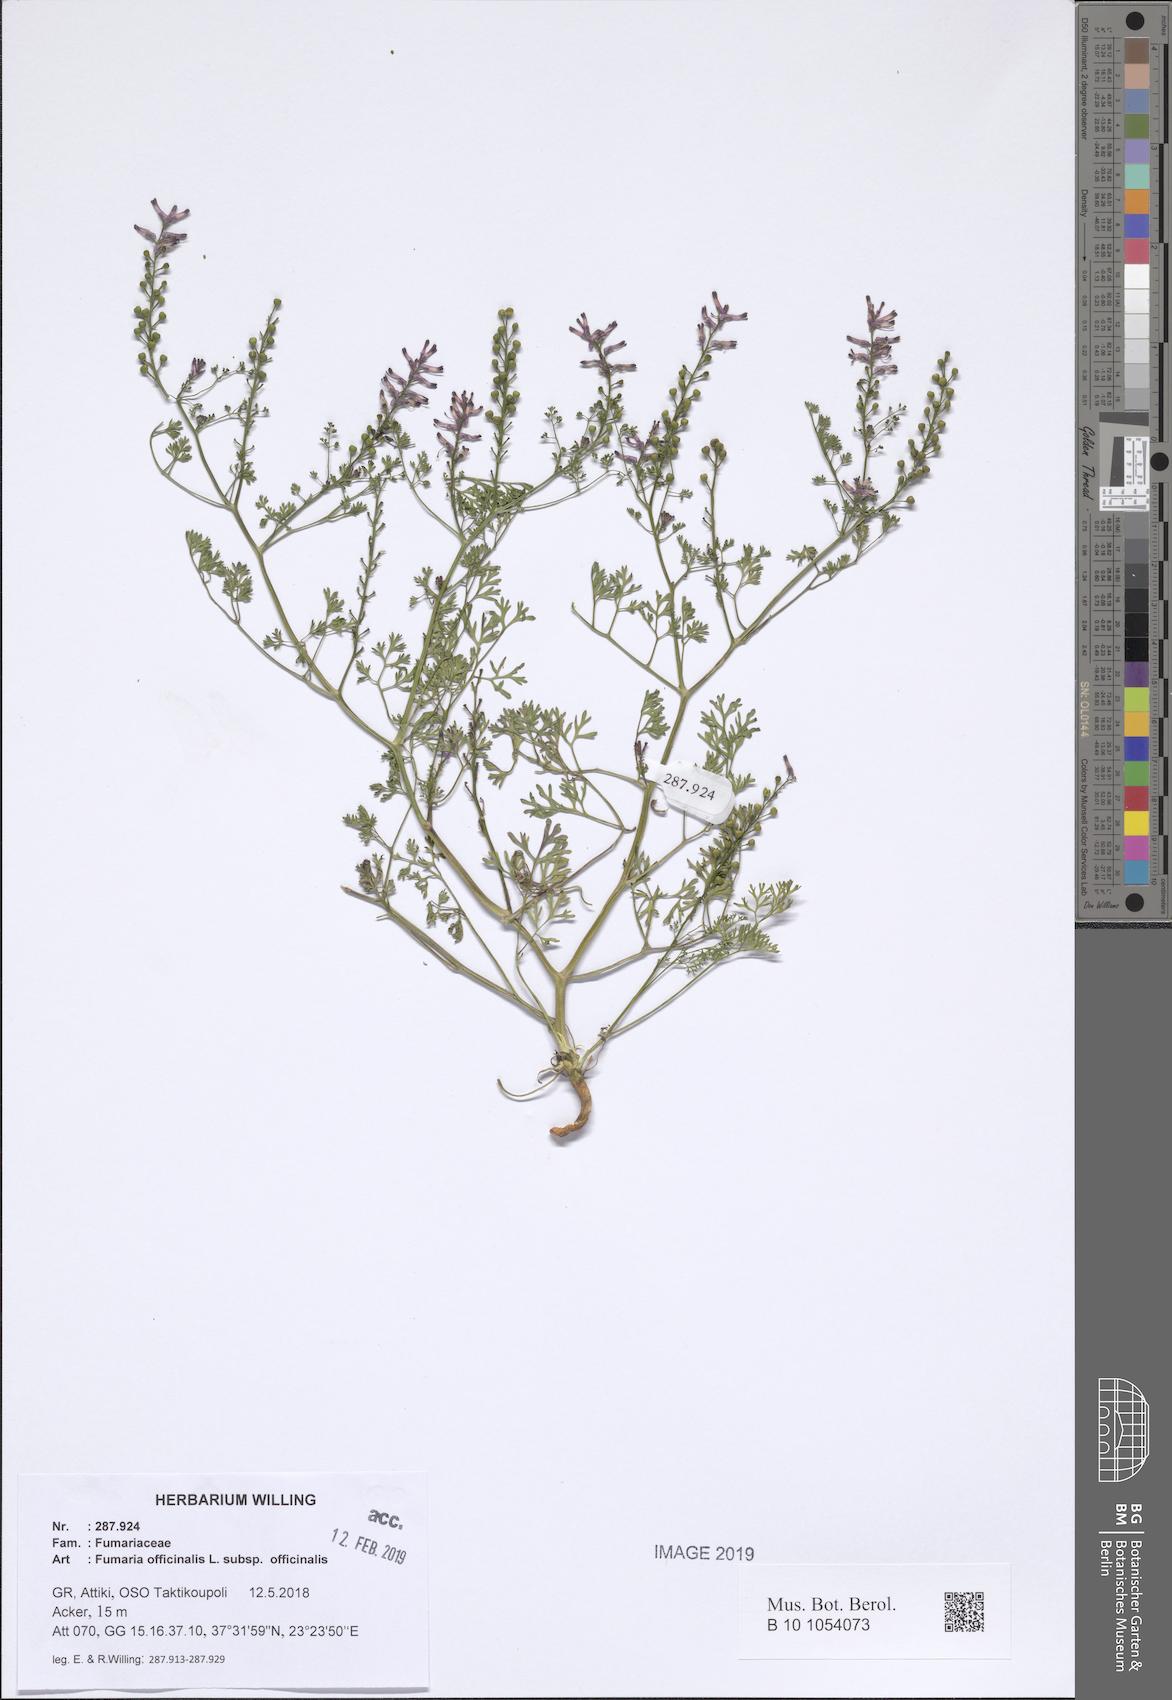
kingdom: Plantae
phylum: Tracheophyta
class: Magnoliopsida
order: Ranunculales
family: Papaveraceae
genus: Fumaria
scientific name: Fumaria officinalis
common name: Common fumitory
